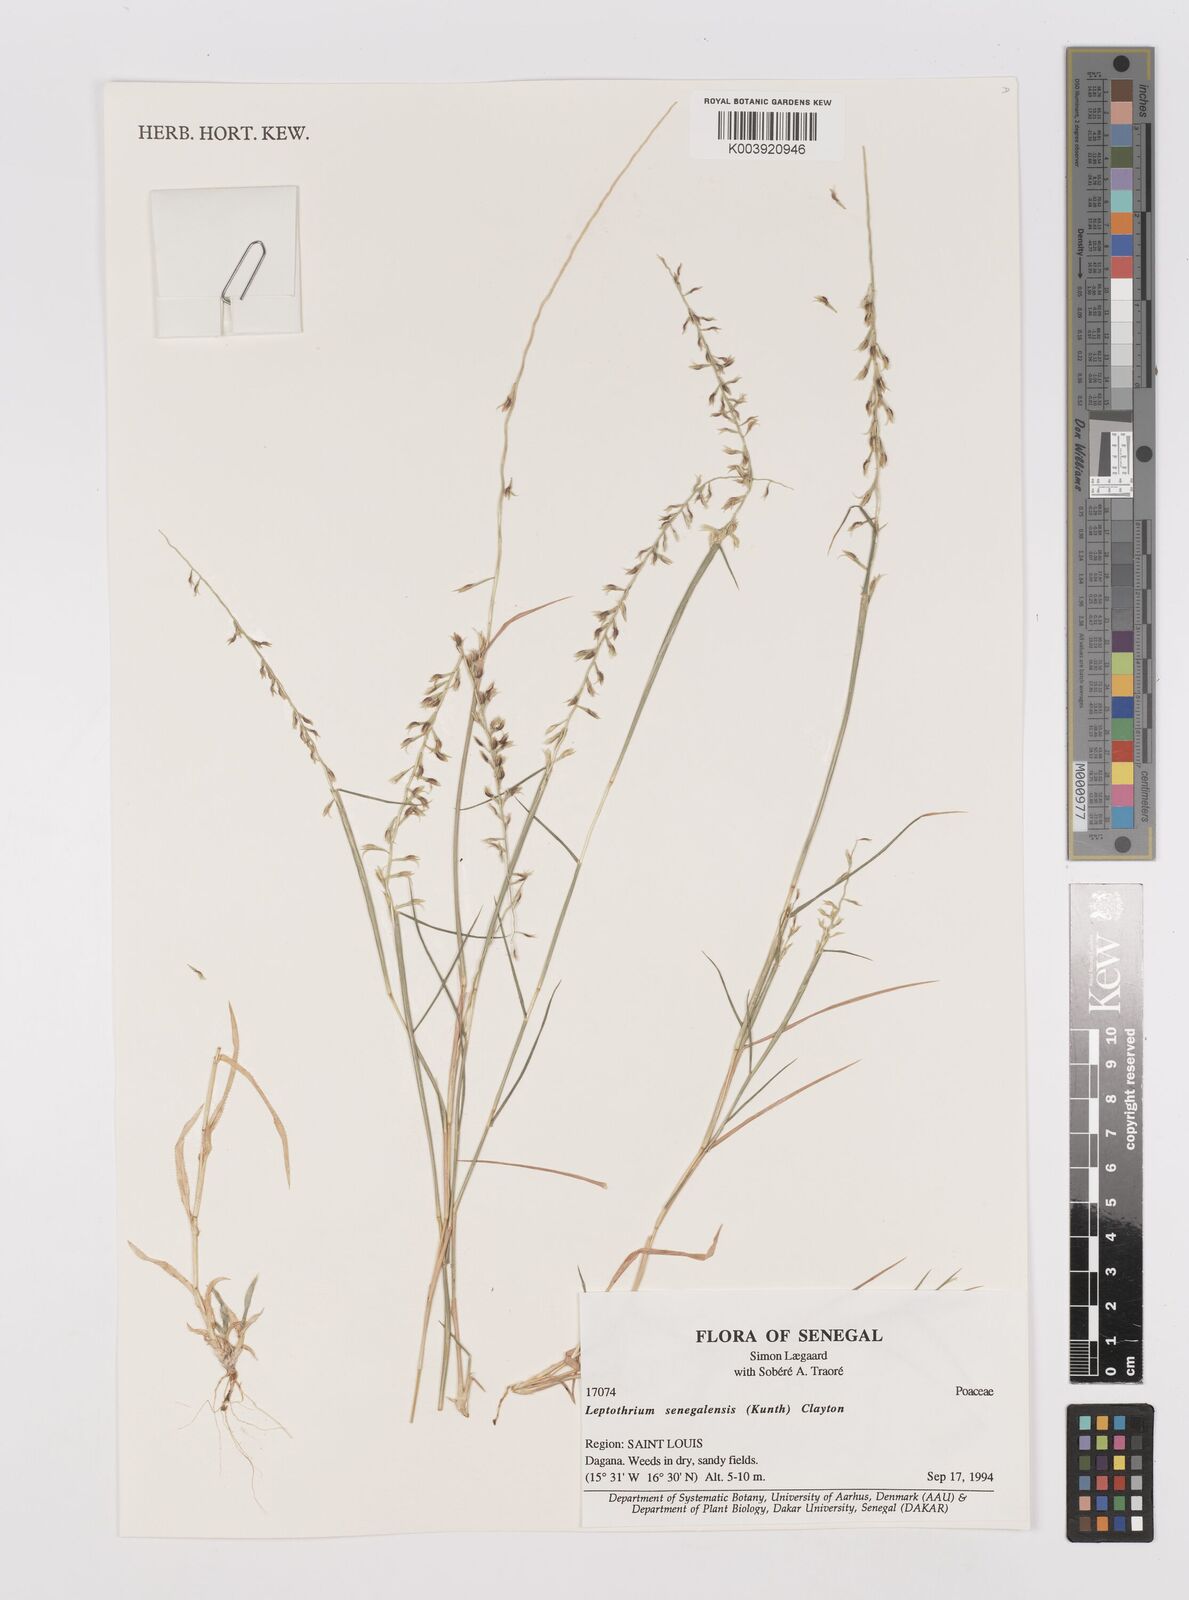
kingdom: Plantae
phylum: Tracheophyta
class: Liliopsida
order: Poales
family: Poaceae
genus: Leptothrium
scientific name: Leptothrium senegalense
